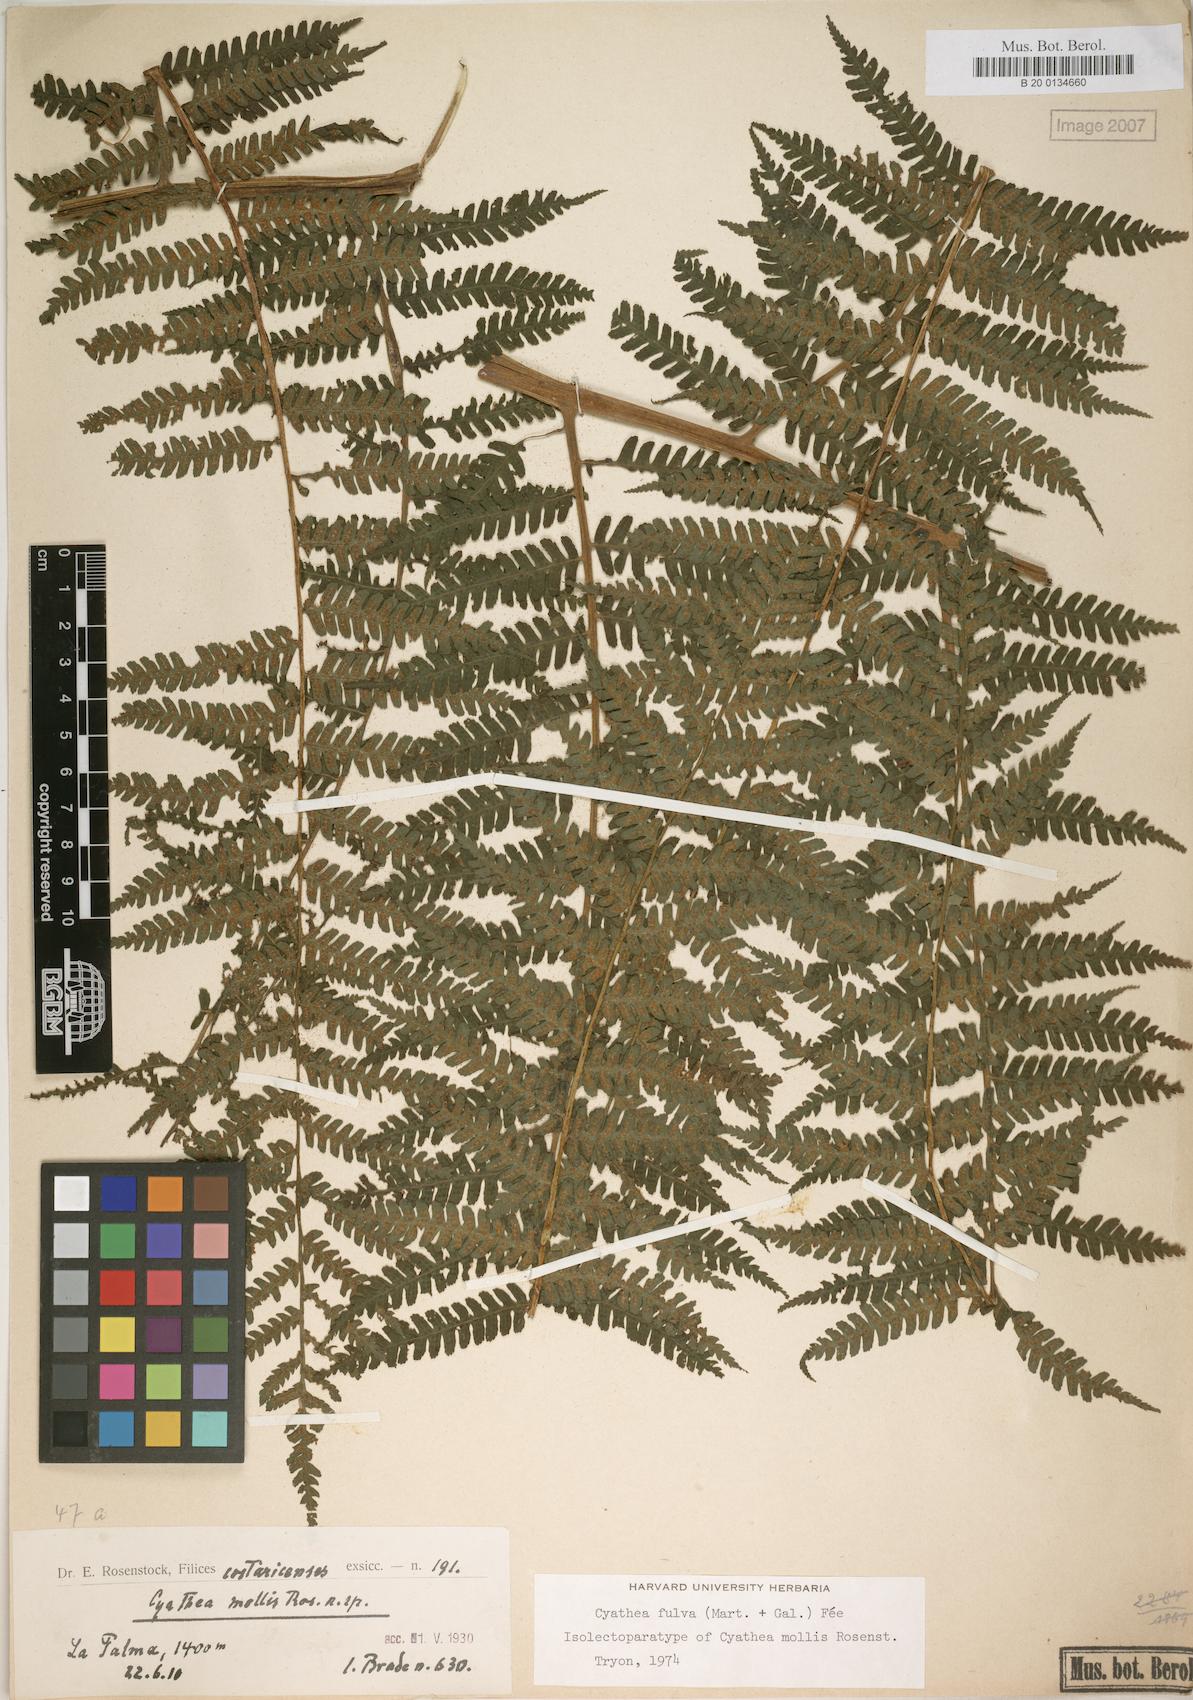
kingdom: Plantae
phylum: Tracheophyta
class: Polypodiopsida
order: Cyatheales
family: Cyatheaceae
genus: Cyathea
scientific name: Cyathea fulva
